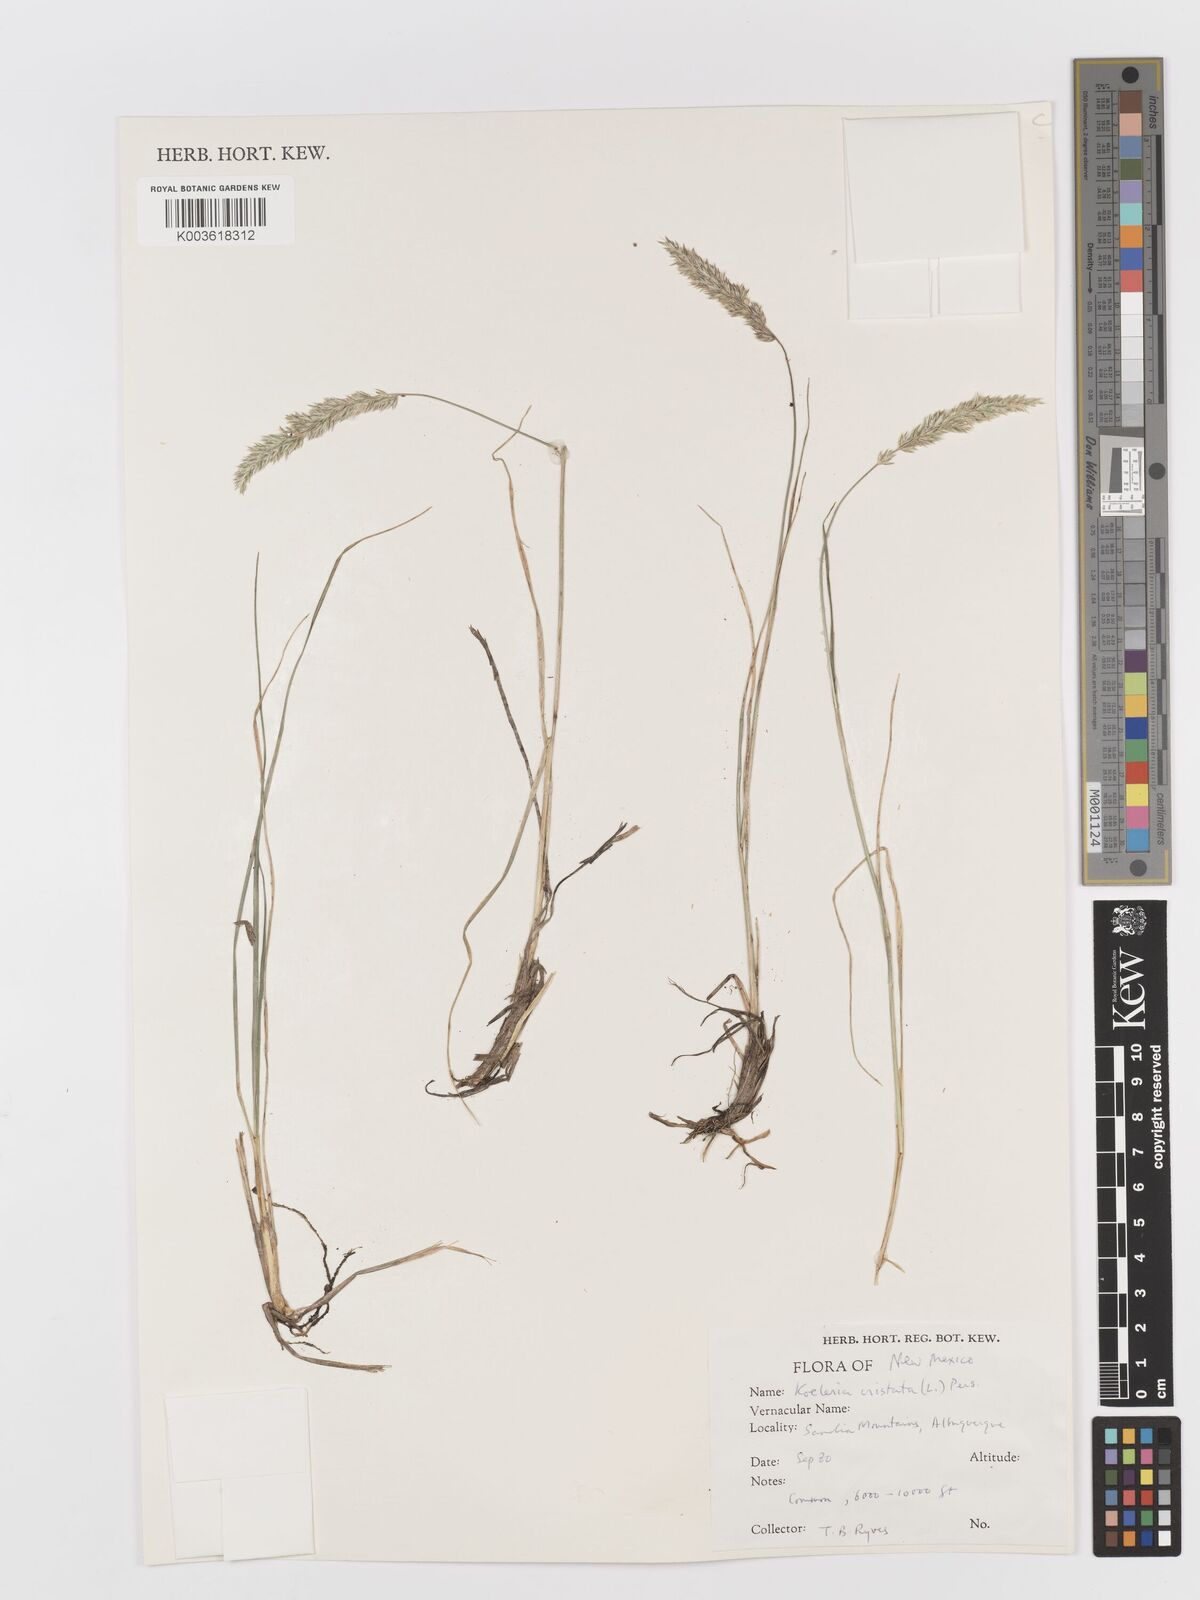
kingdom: Plantae
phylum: Tracheophyta
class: Liliopsida
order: Poales
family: Poaceae
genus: Koeleria
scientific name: Koeleria macrantha
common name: Crested hair-grass
